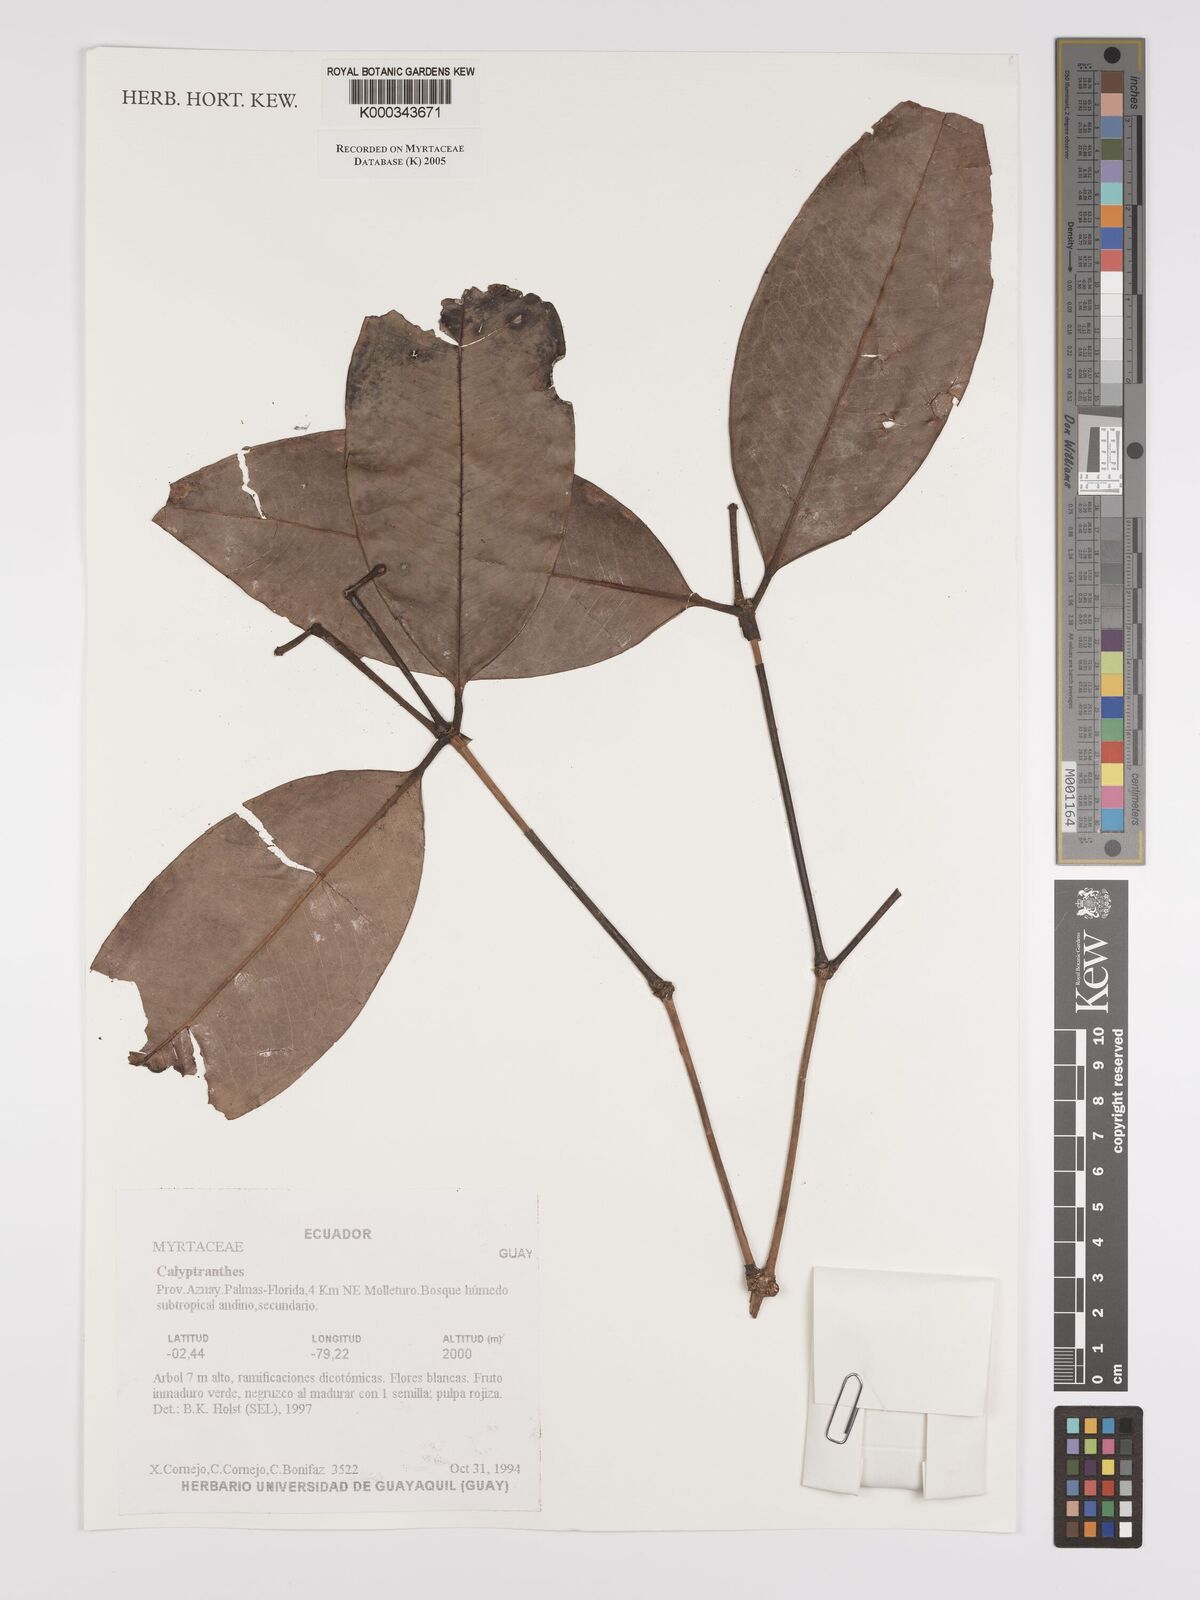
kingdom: Plantae
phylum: Tracheophyta
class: Magnoliopsida
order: Myrtales
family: Myrtaceae
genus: Calyptranthes
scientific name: Calyptranthes
